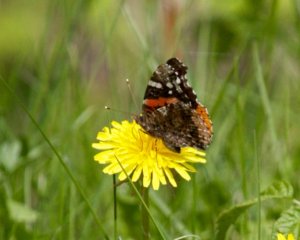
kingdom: Animalia
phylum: Arthropoda
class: Insecta
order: Lepidoptera
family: Nymphalidae
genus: Vanessa
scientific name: Vanessa atalanta
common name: Red Admiral
